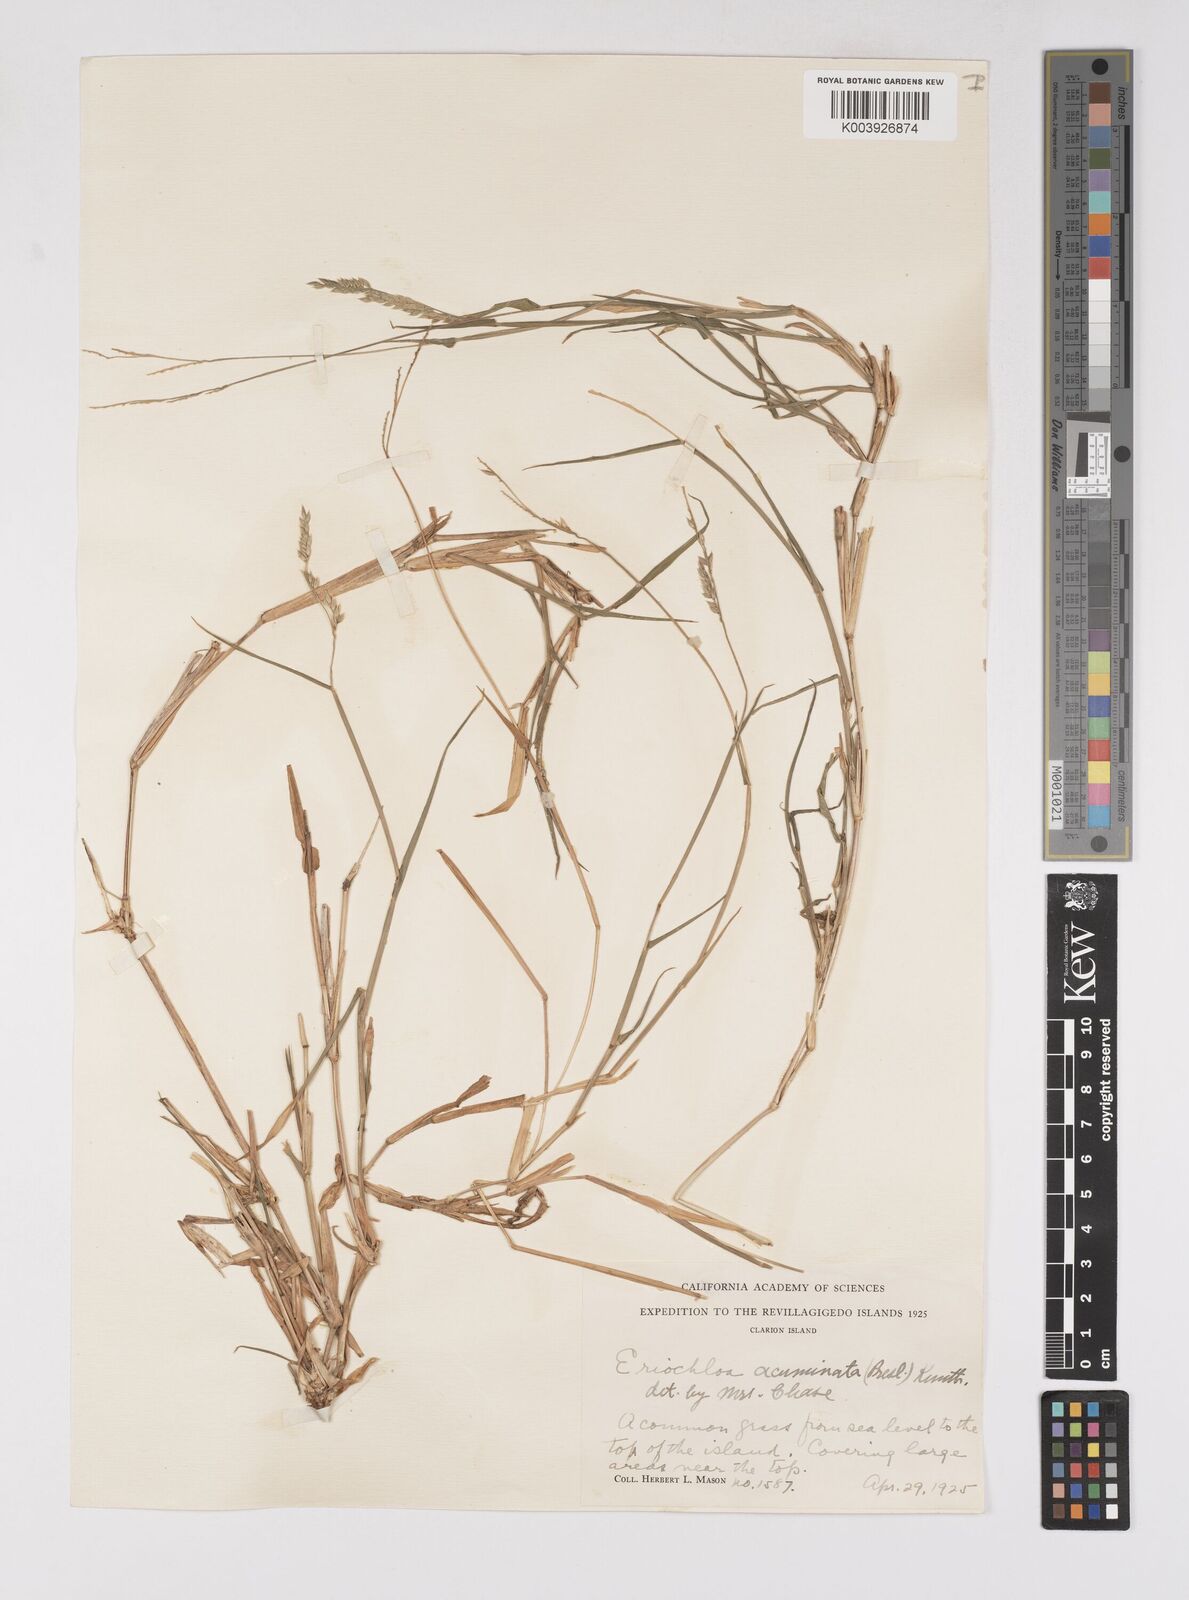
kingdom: Plantae
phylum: Tracheophyta
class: Liliopsida
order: Poales
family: Poaceae
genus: Eriochloa
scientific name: Eriochloa acuminata
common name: Southwestern cup grass
